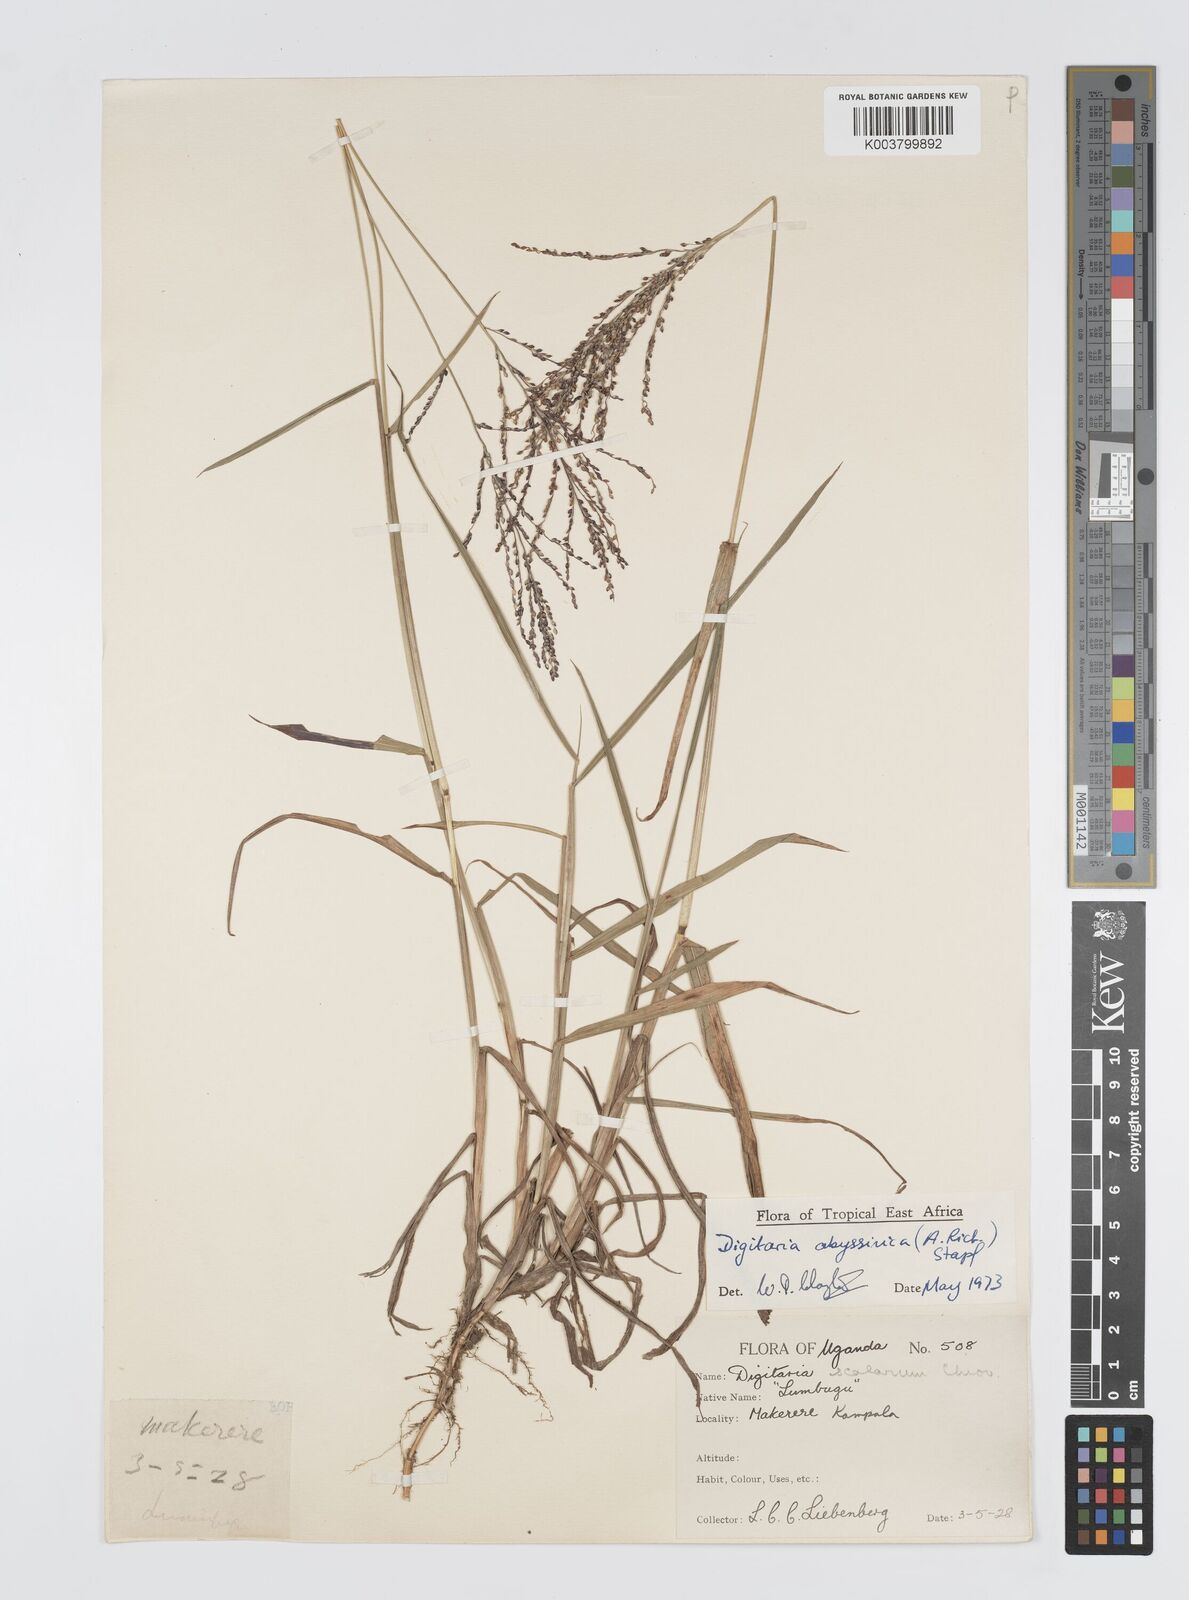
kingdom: Plantae
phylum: Tracheophyta
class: Liliopsida
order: Poales
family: Poaceae
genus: Digitaria
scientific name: Digitaria abyssinica
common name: African couchgrass
